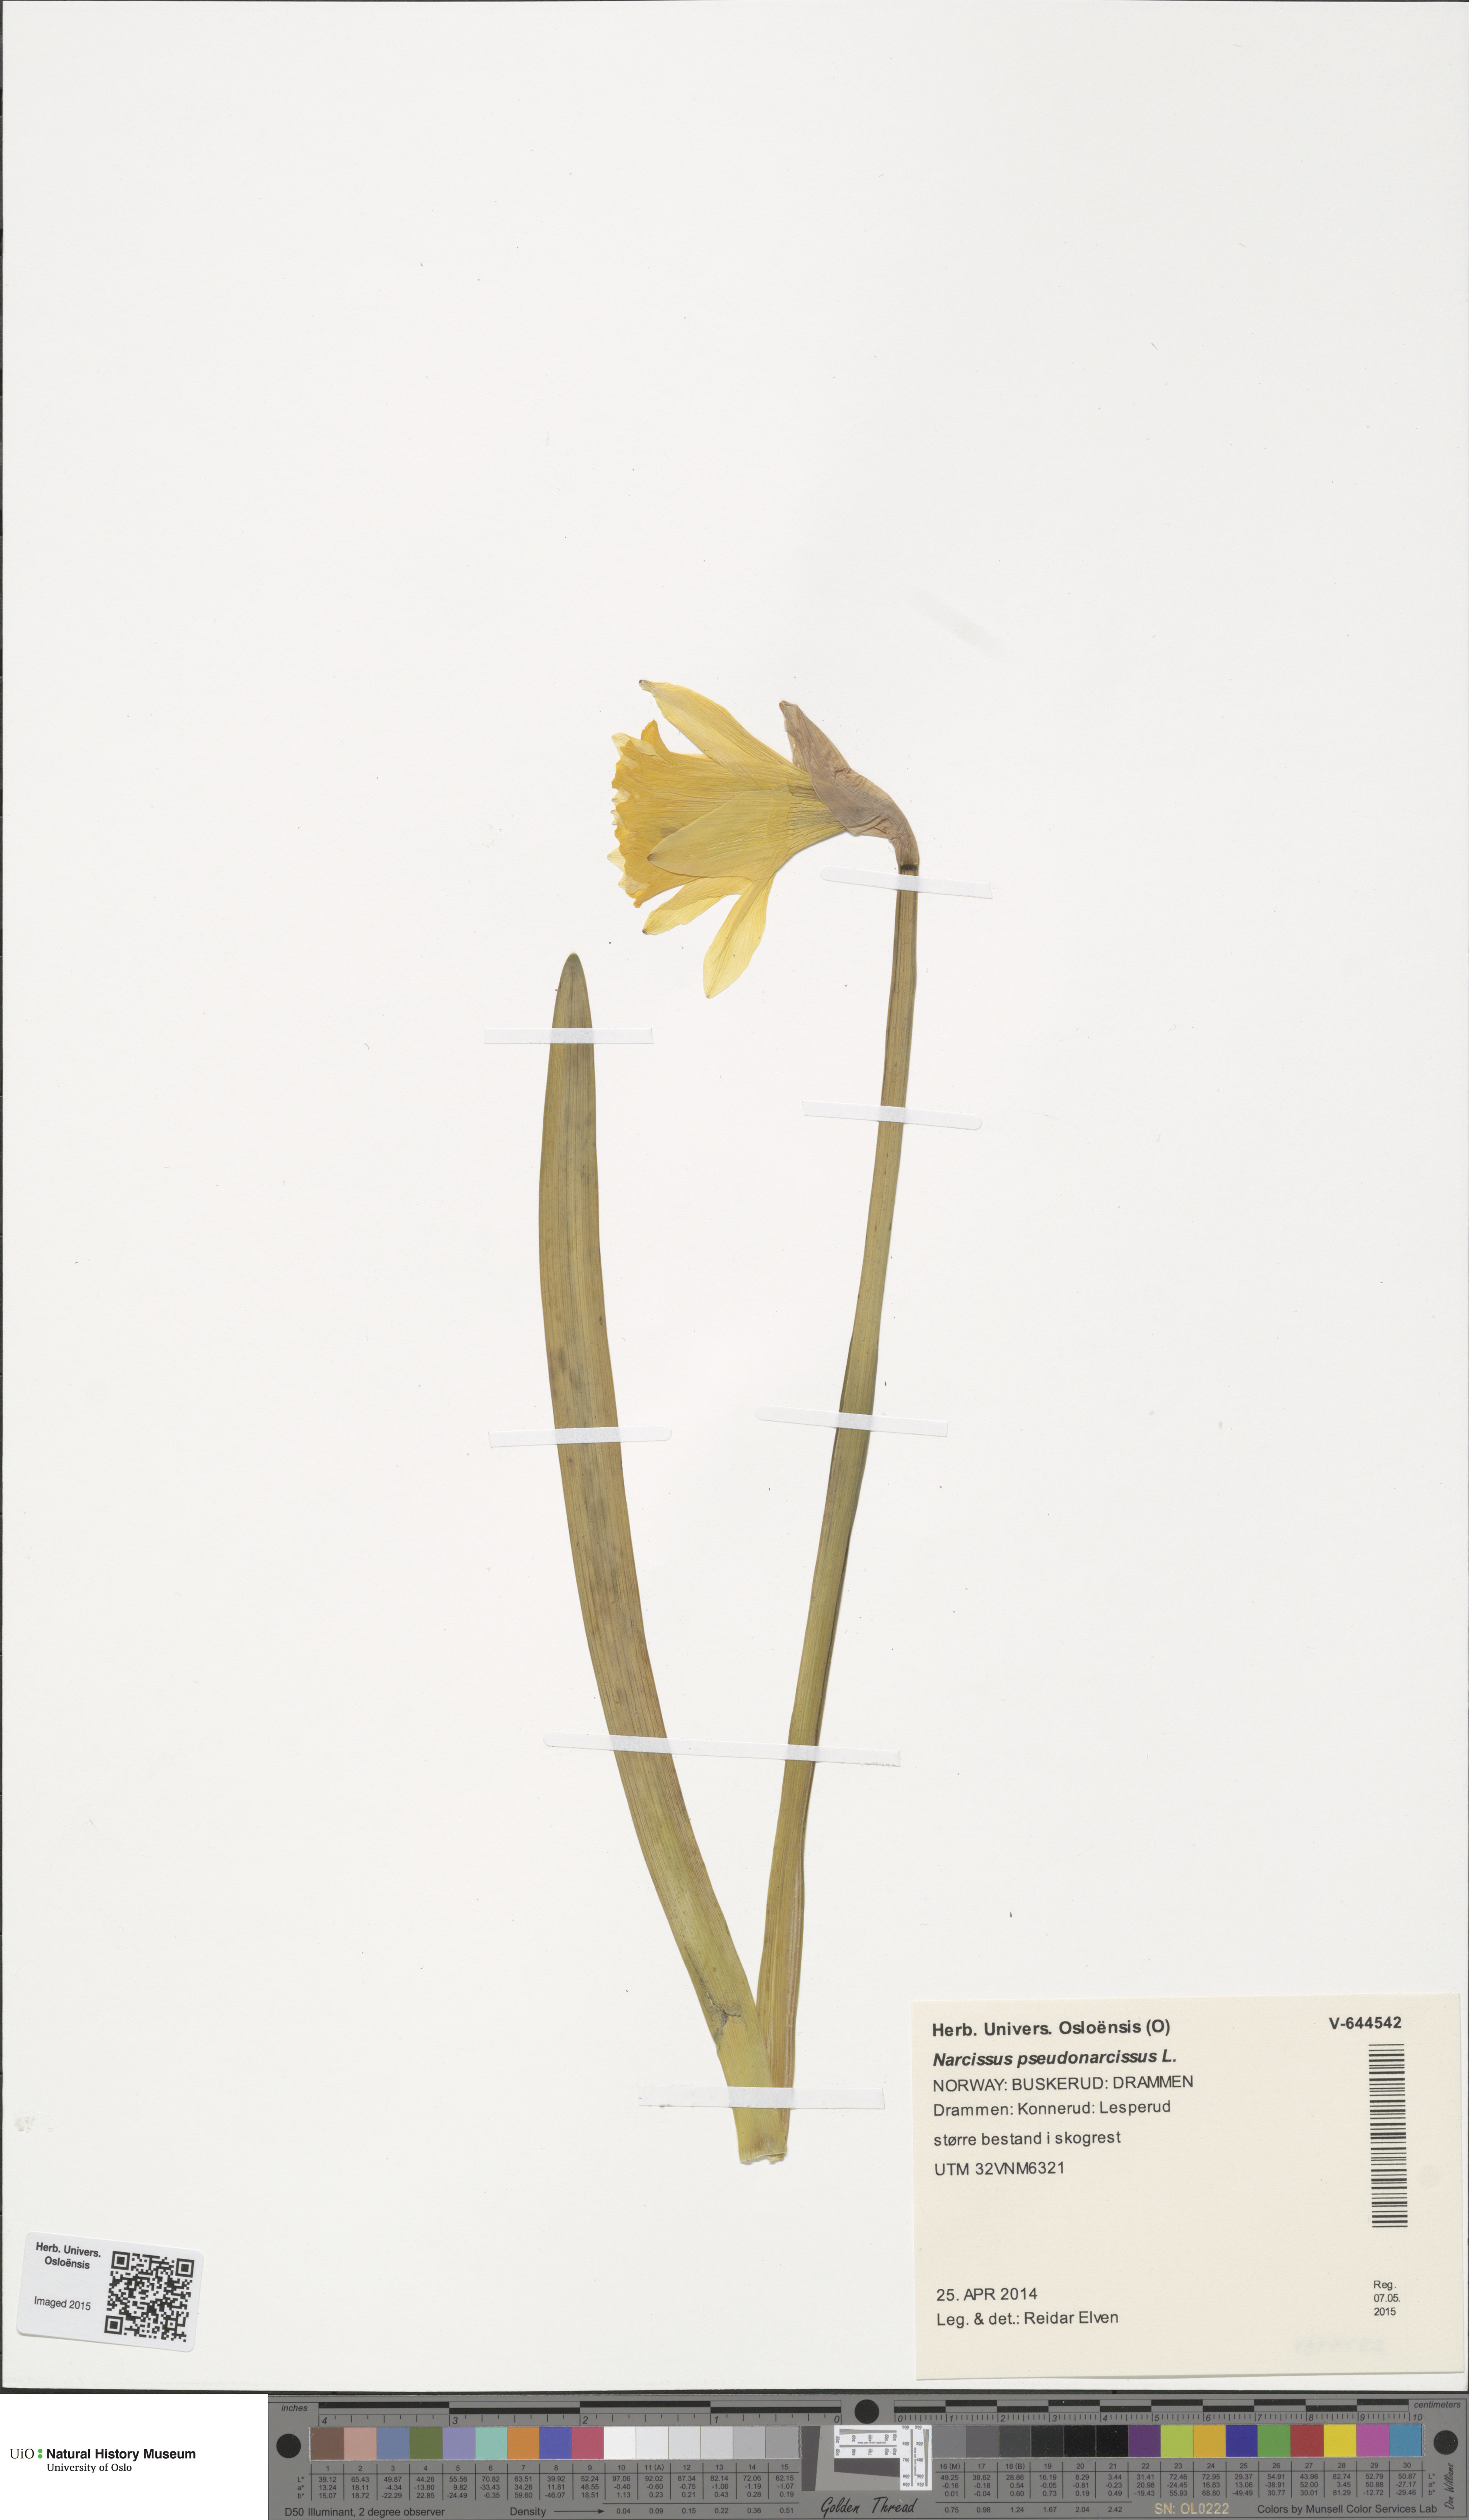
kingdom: Plantae
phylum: Tracheophyta
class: Liliopsida
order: Asparagales
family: Amaryllidaceae
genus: Narcissus
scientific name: Narcissus pseudonarcissus
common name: Daffodil
